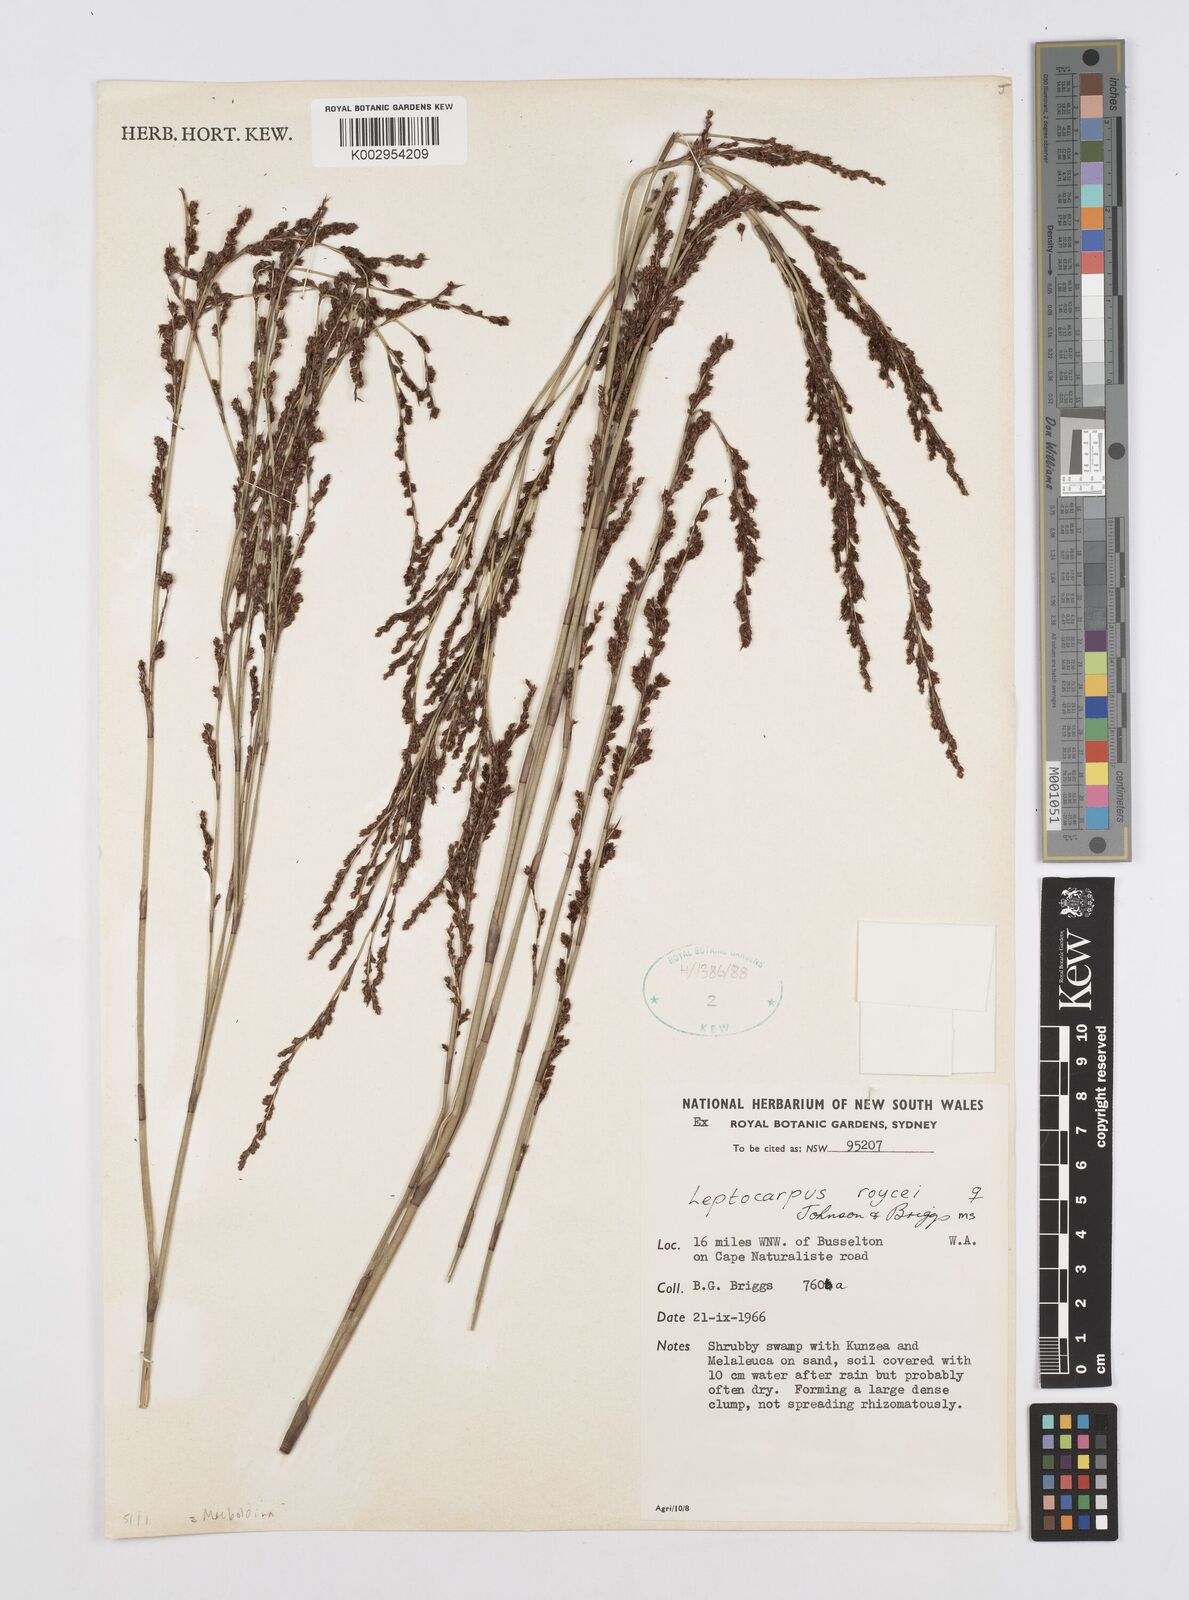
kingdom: Plantae
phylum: Tracheophyta
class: Liliopsida
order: Poales
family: Restionaceae
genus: Leptocarpus
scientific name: Leptocarpus roycei
